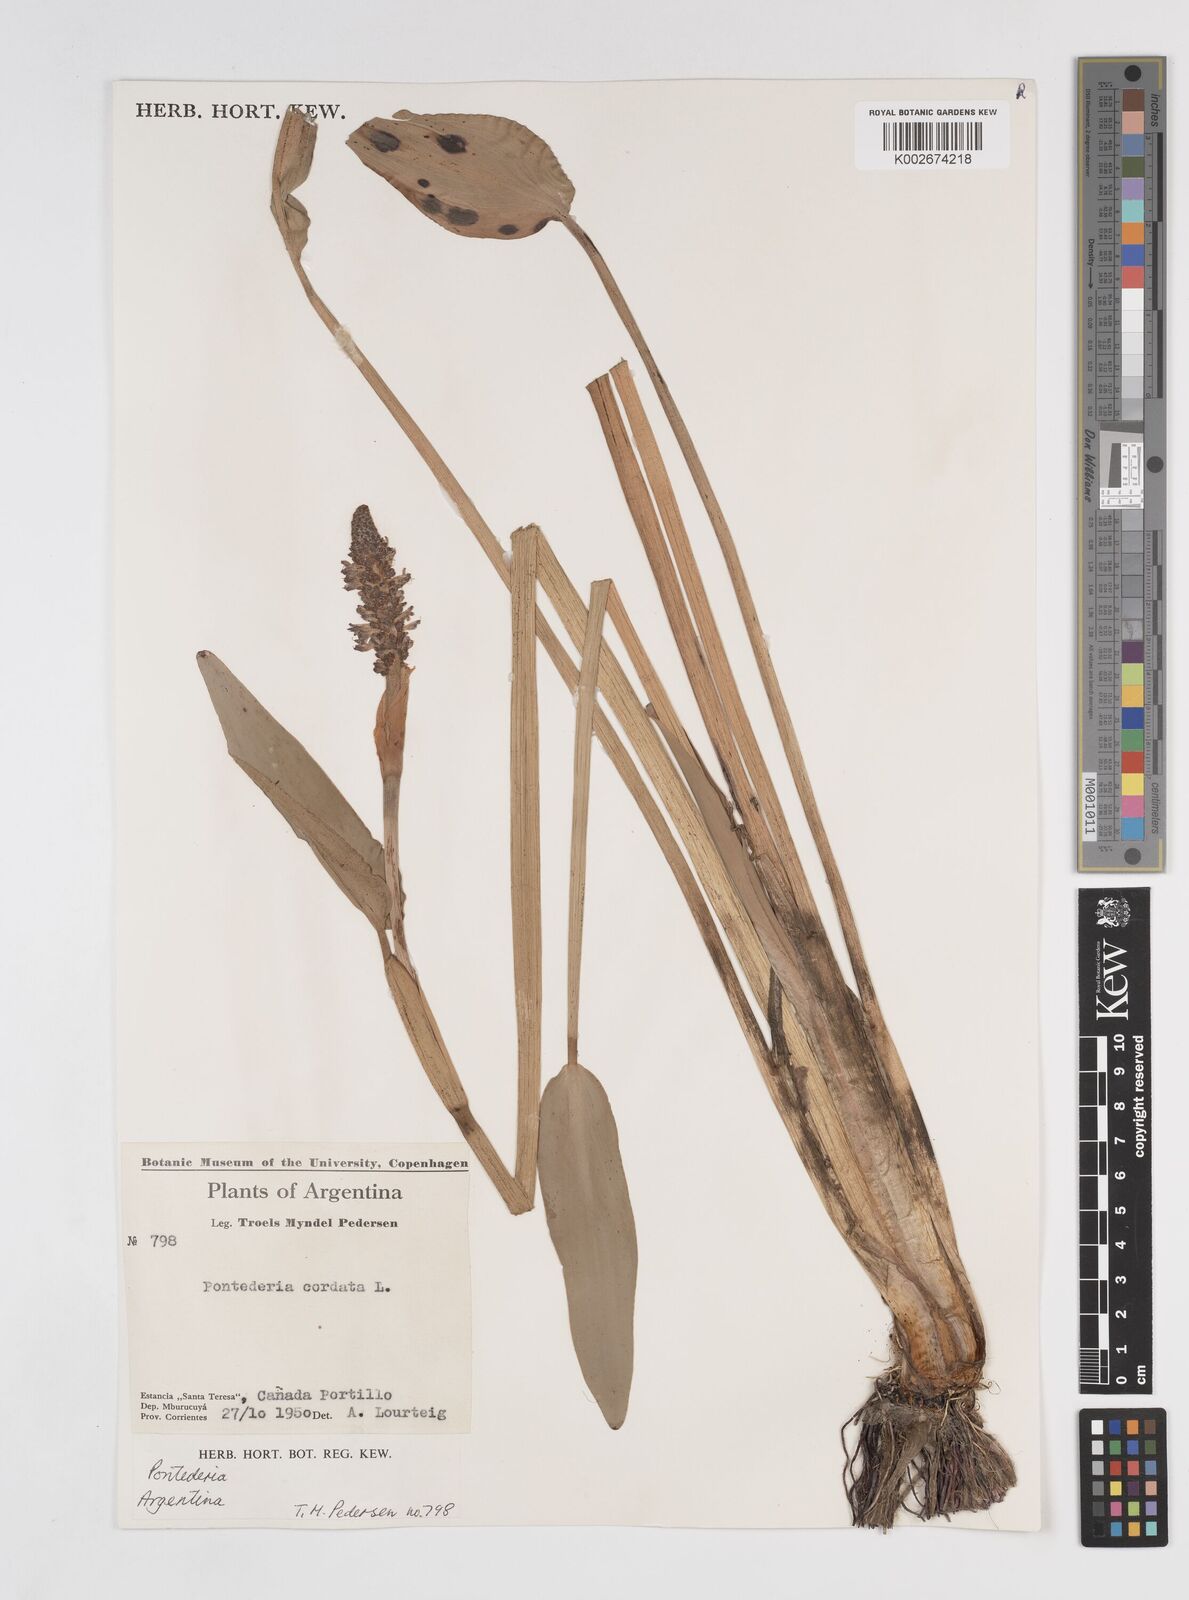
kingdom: Plantae
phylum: Tracheophyta
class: Liliopsida
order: Commelinales
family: Pontederiaceae
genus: Pontederia
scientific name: Pontederia
